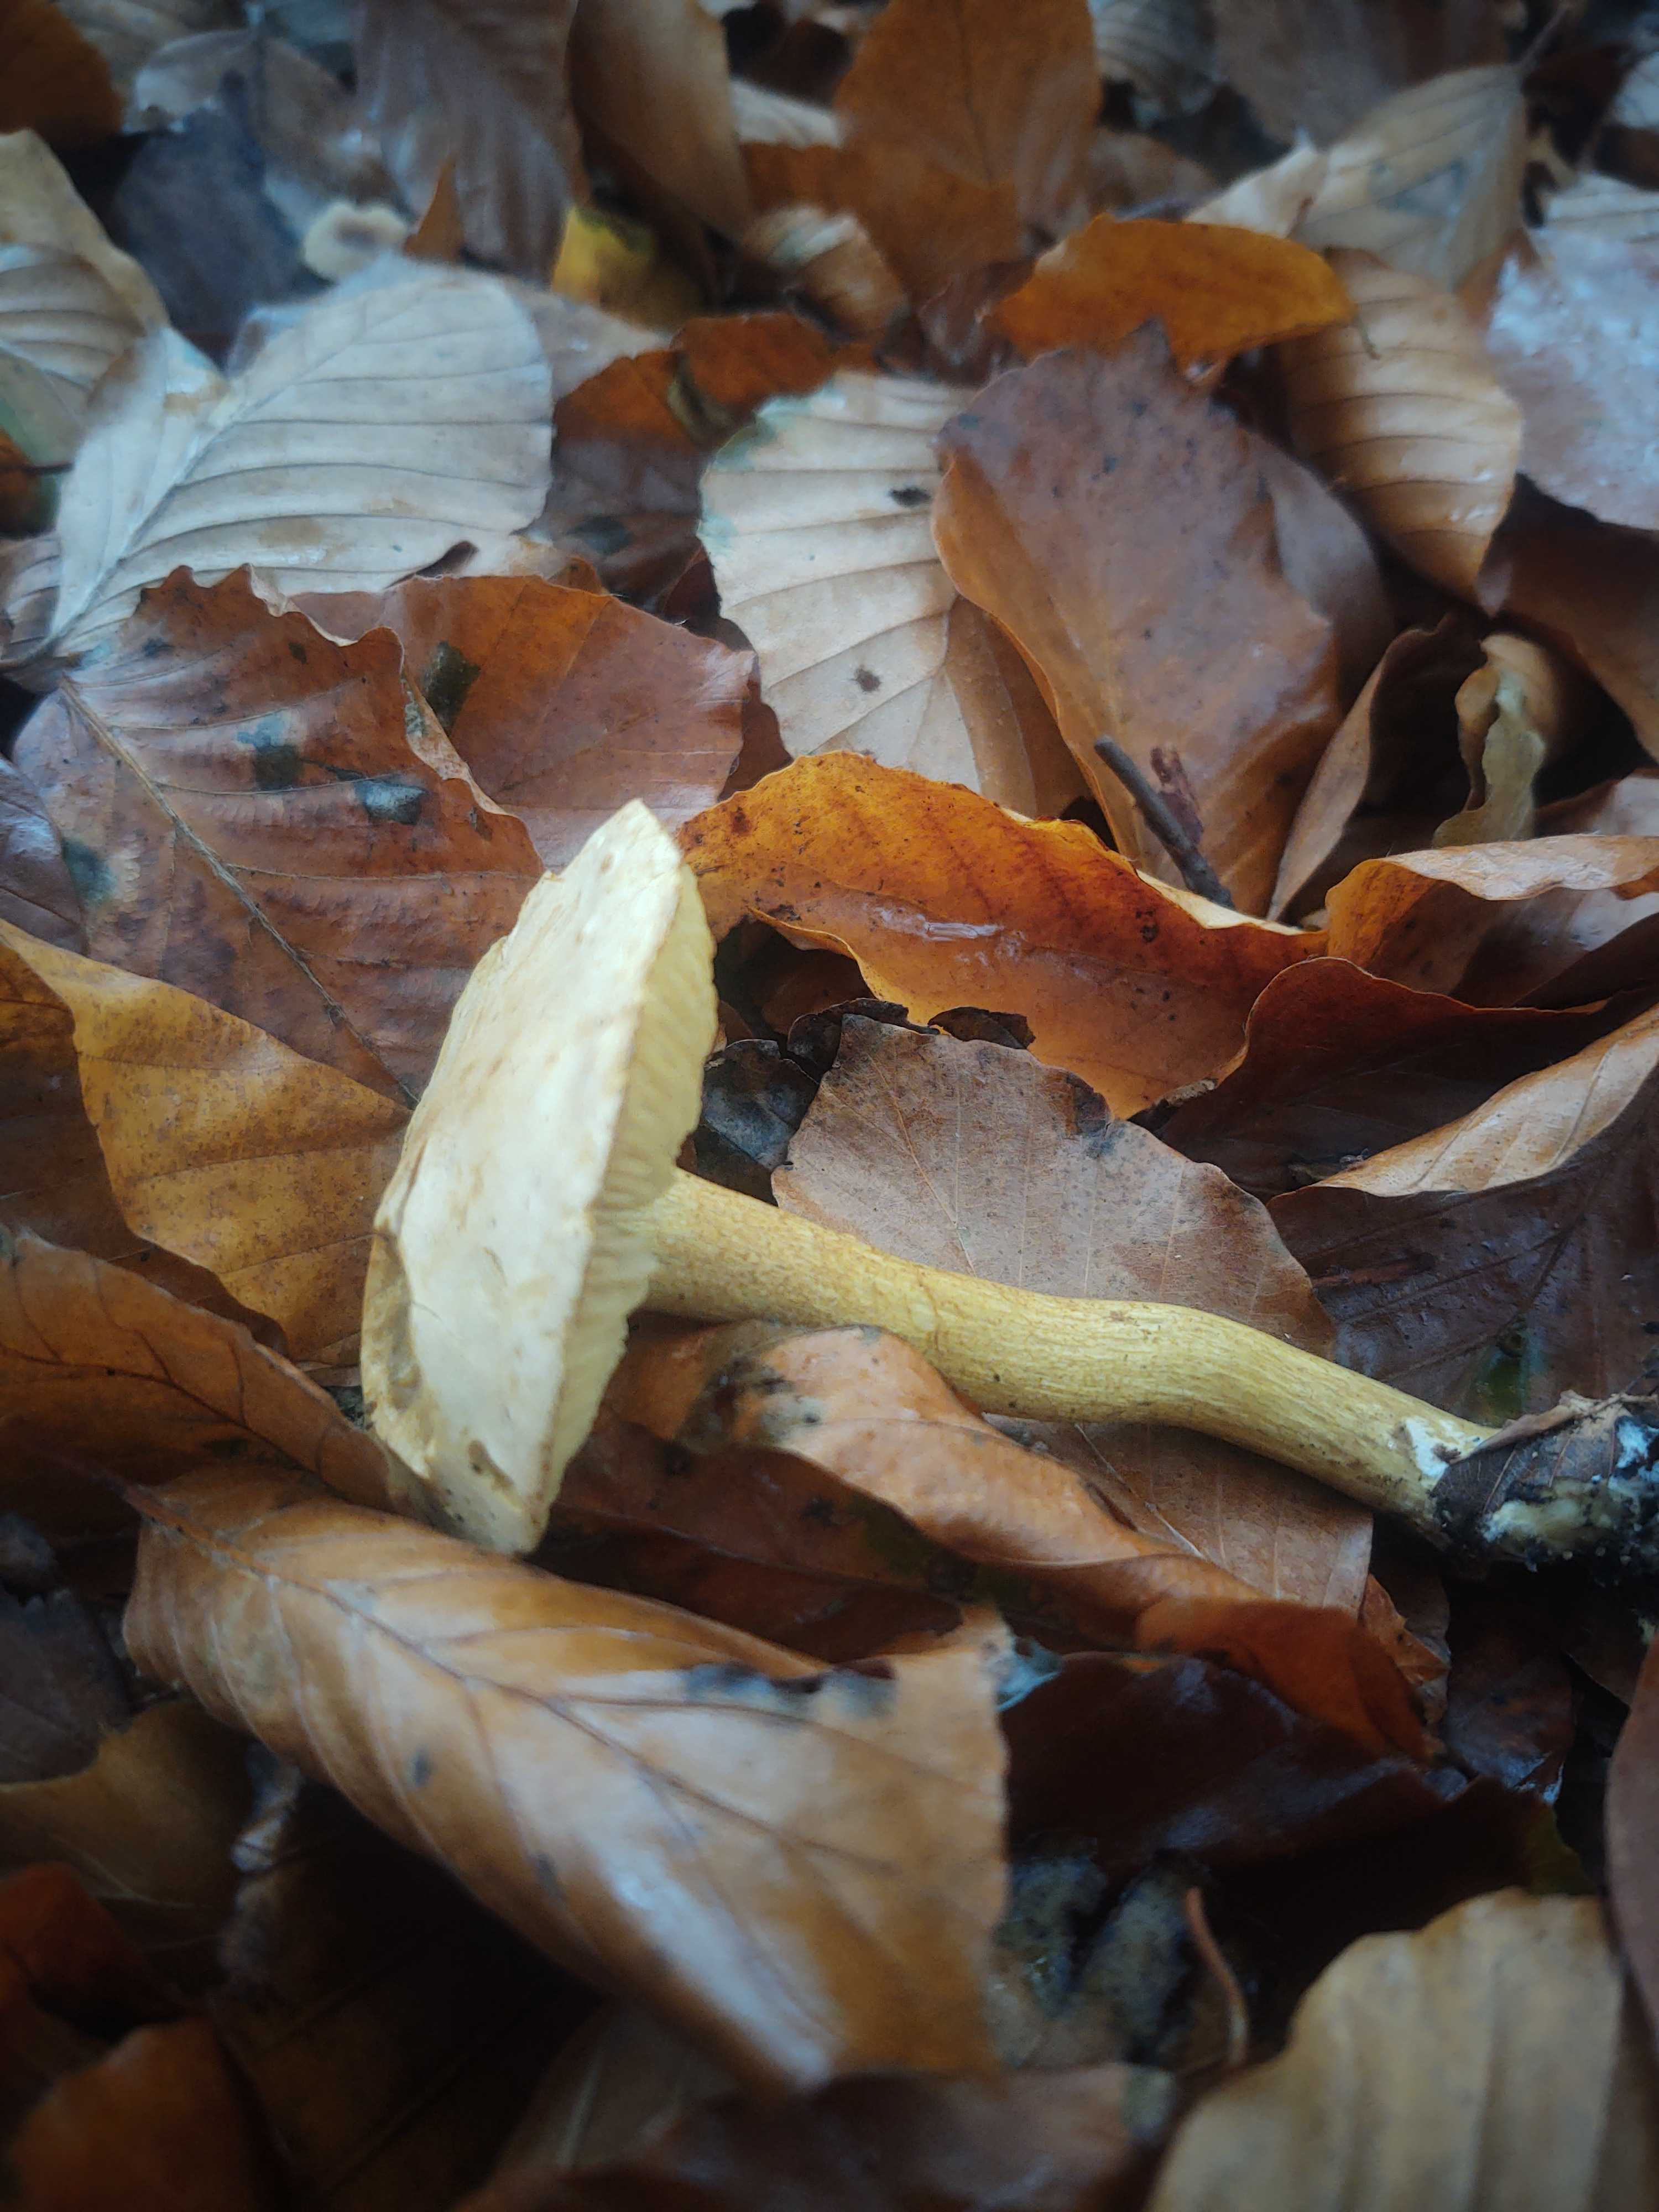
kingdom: Fungi
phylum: Basidiomycota
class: Agaricomycetes
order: Agaricales
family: Tricholomataceae
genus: Tricholoma
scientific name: Tricholoma sulphureum
